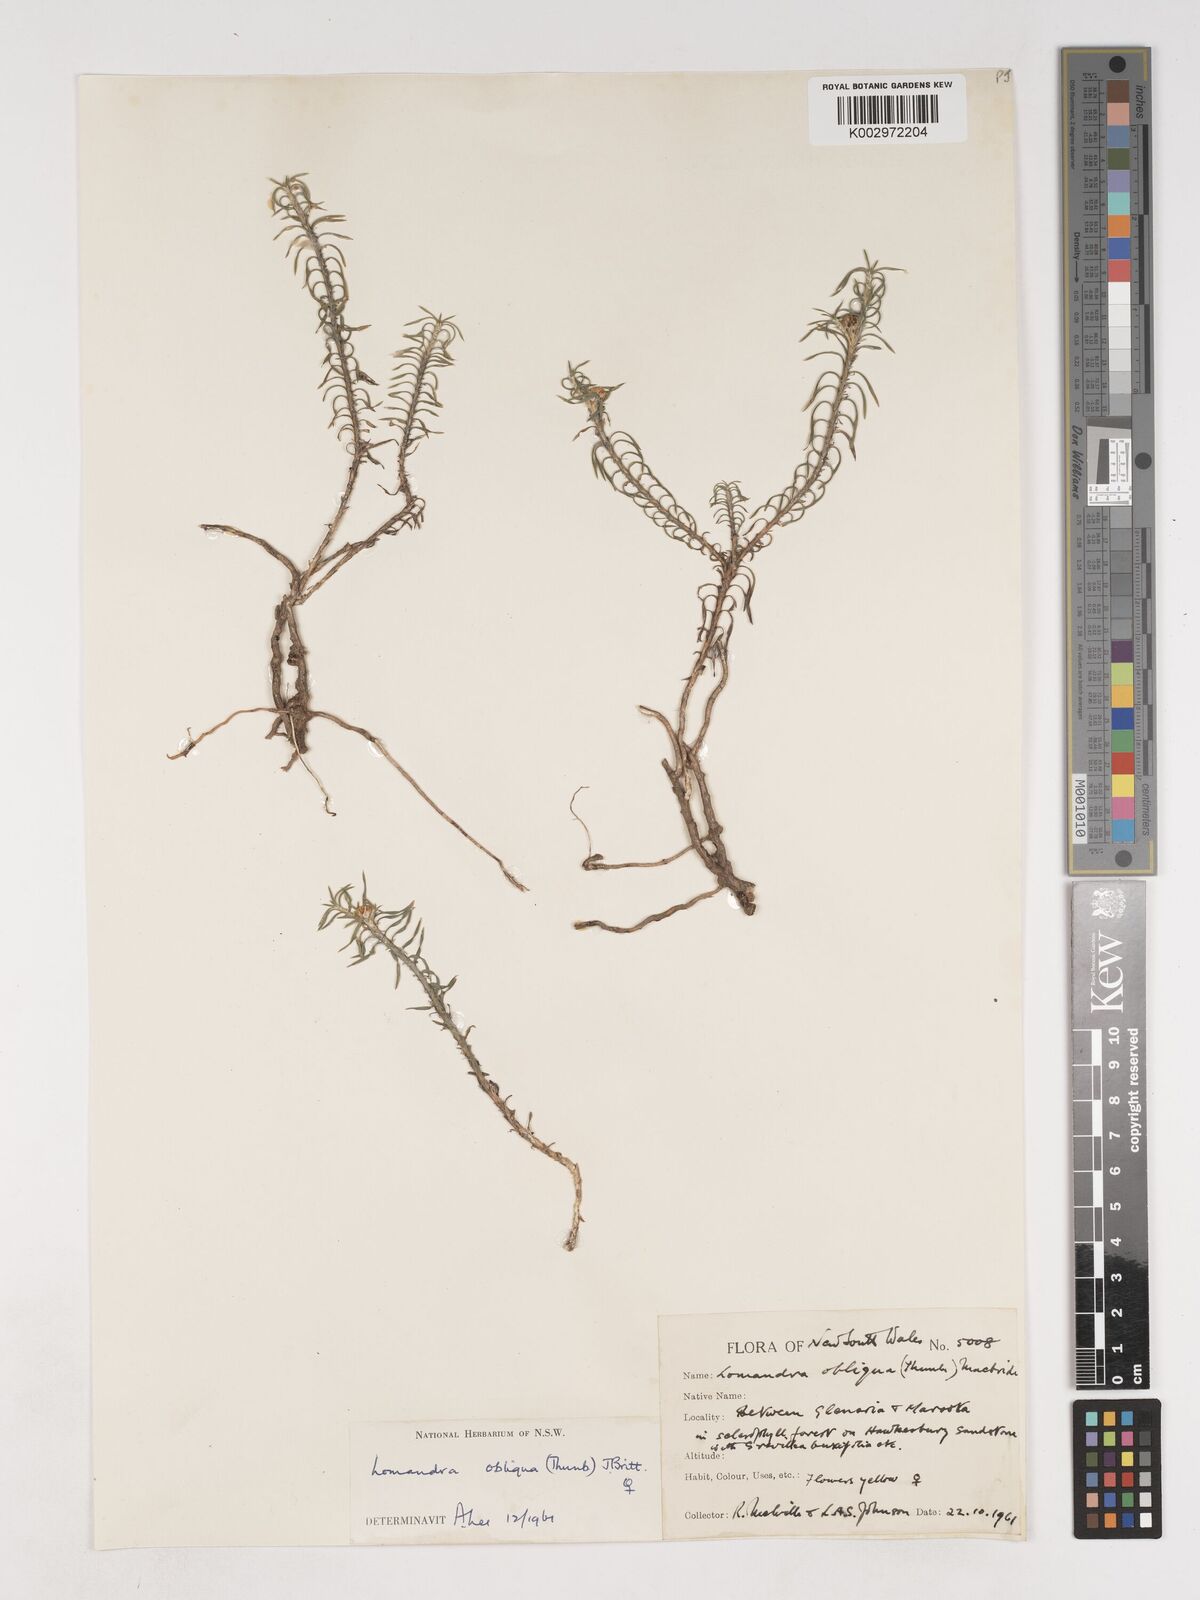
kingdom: Plantae
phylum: Tracheophyta
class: Liliopsida
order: Asparagales
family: Asparagaceae
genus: Lomandra
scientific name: Lomandra obliqua
